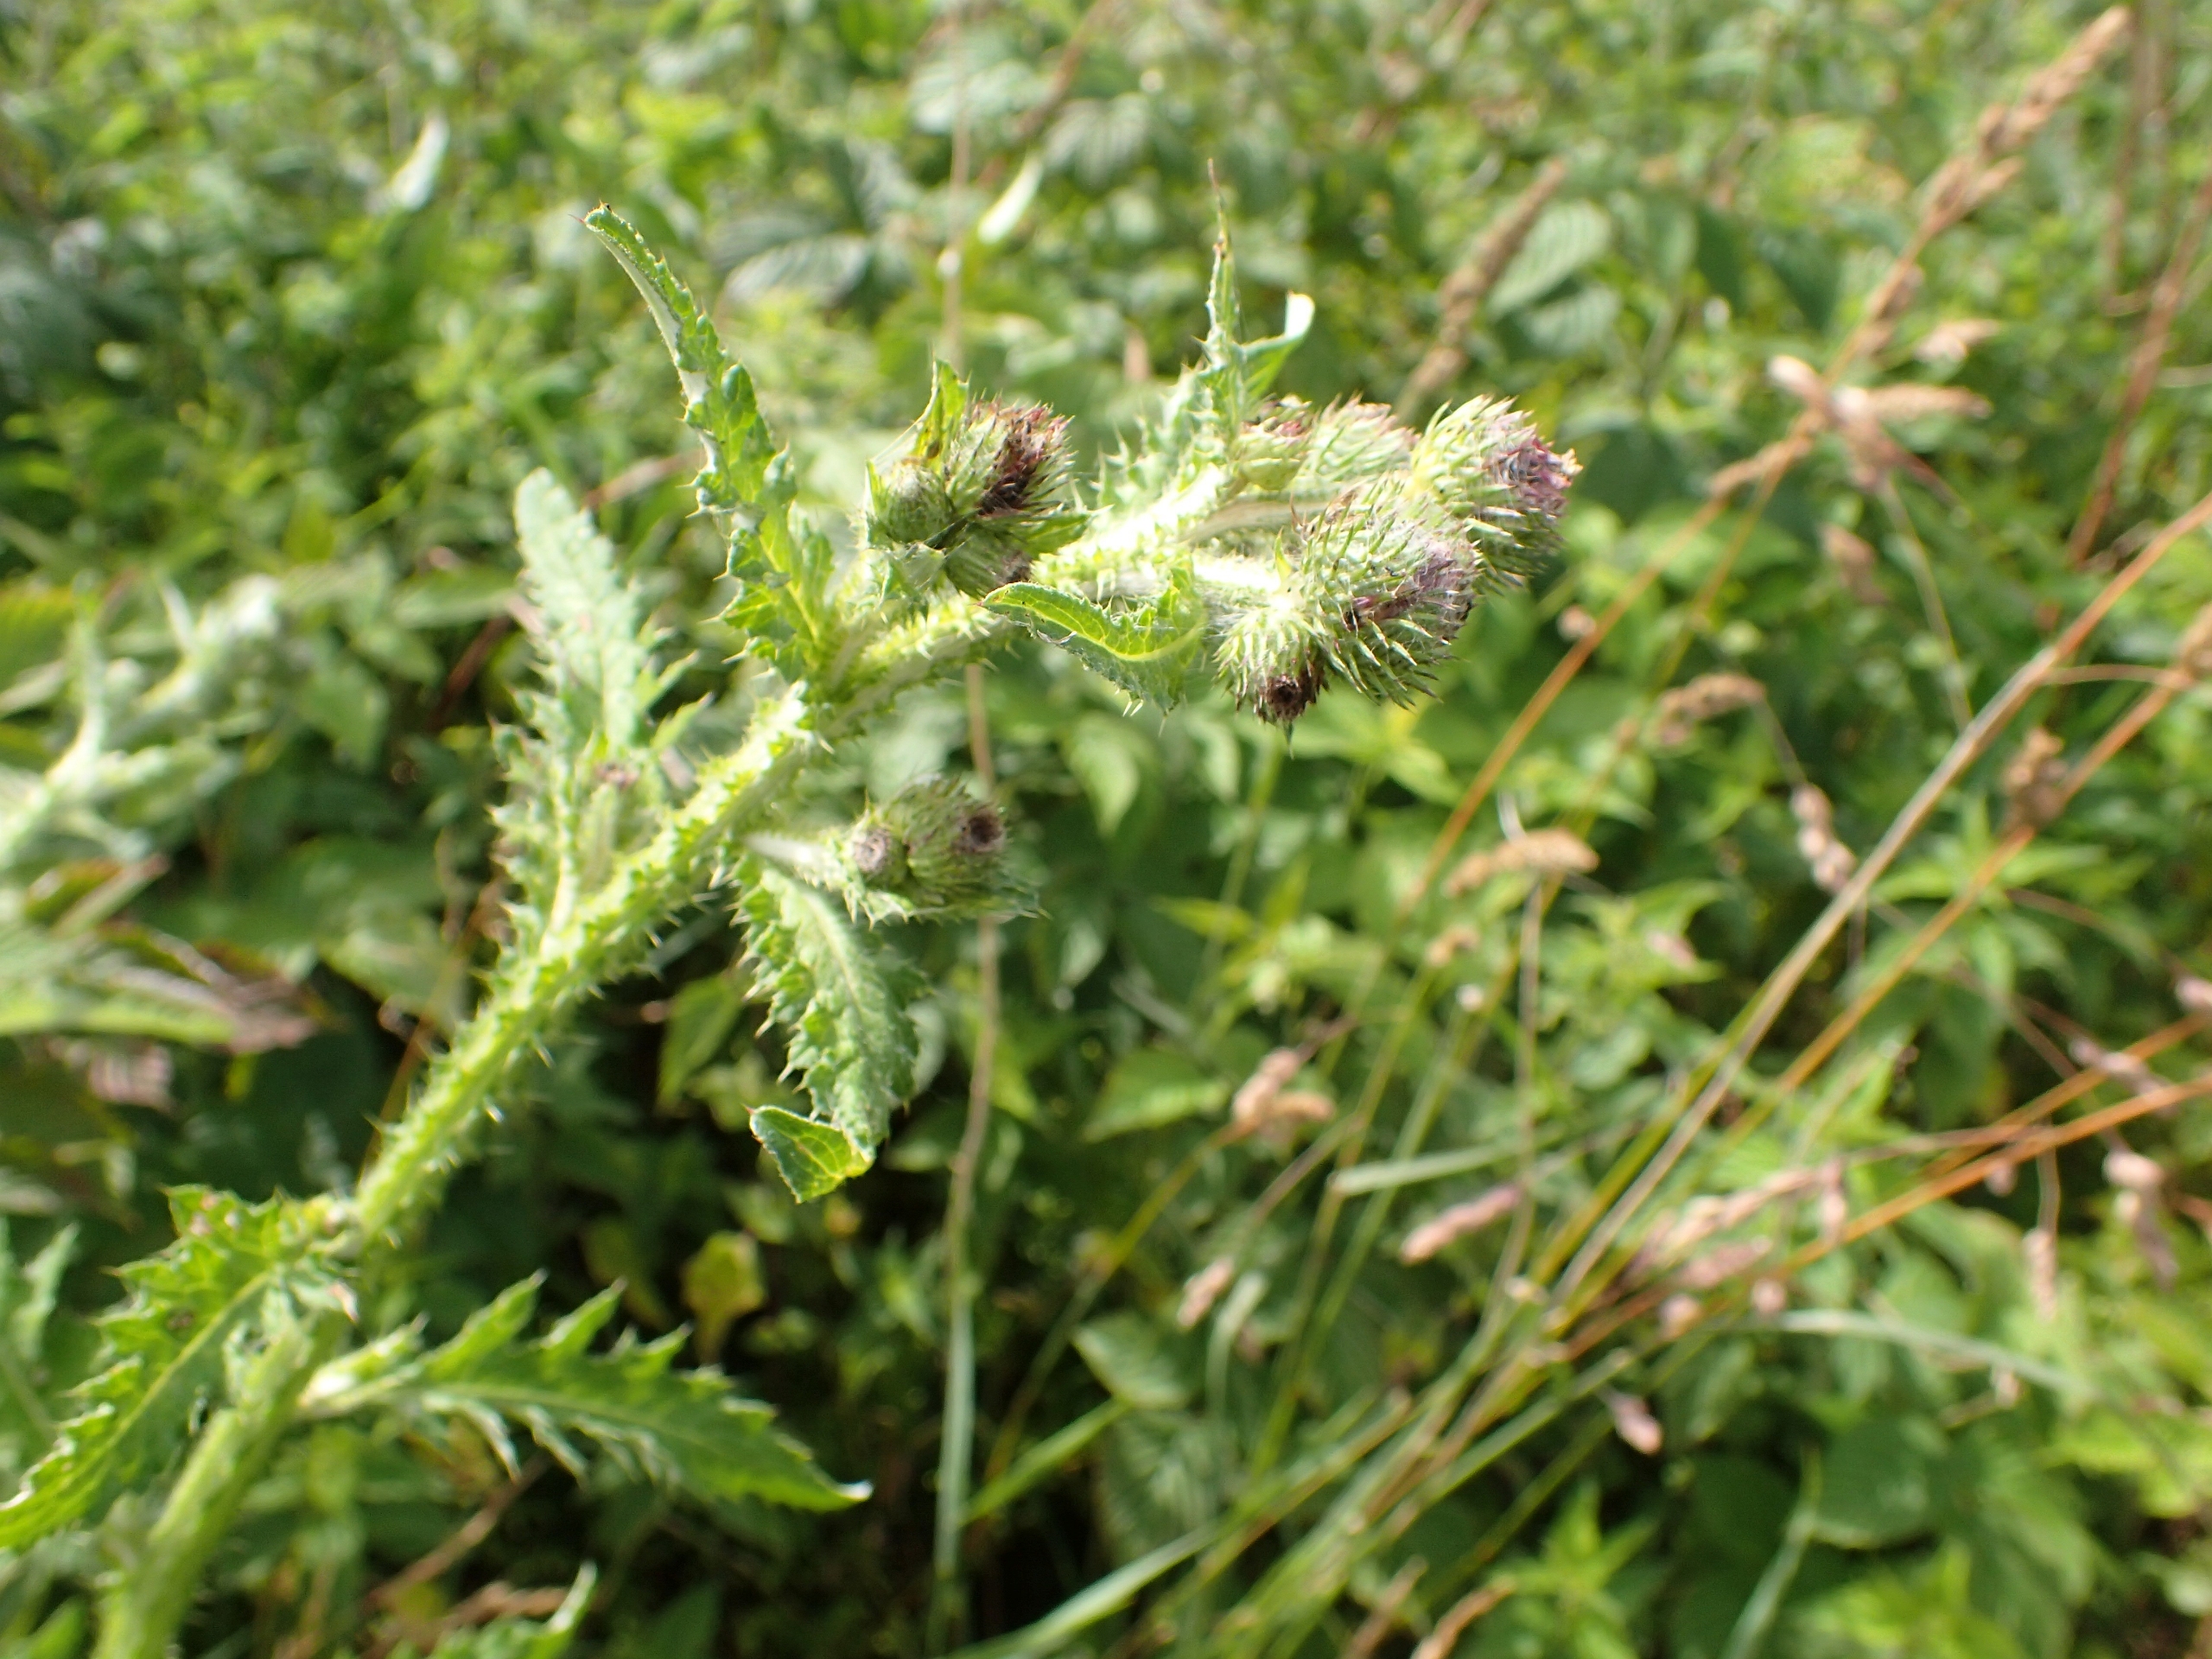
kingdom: Plantae
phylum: Tracheophyta
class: Magnoliopsida
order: Asterales
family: Asteraceae
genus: Carduus
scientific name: Carduus crispus
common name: Kruset tidsel
